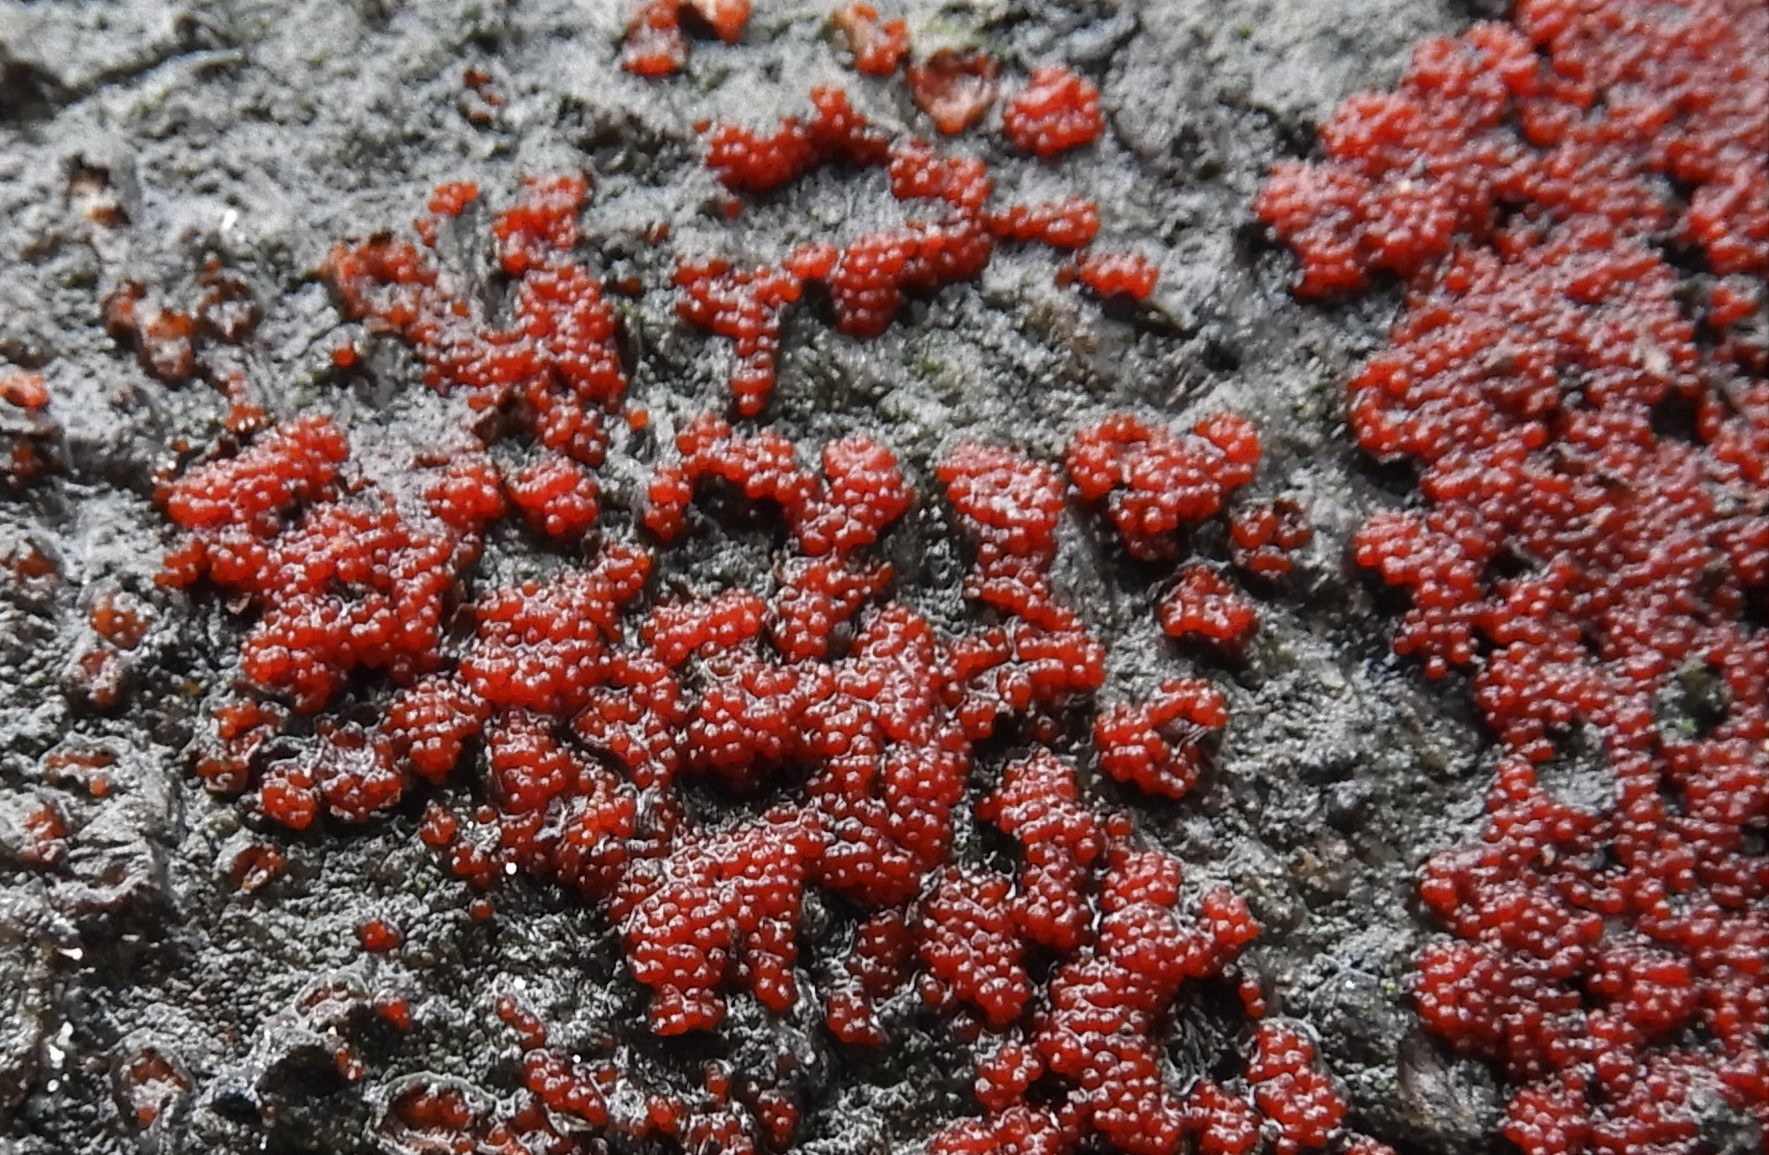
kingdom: Fungi
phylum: Ascomycota
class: Sordariomycetes
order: Hypocreales
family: Nectriaceae
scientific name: Nectriaceae
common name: cinnobersvampfamilien
